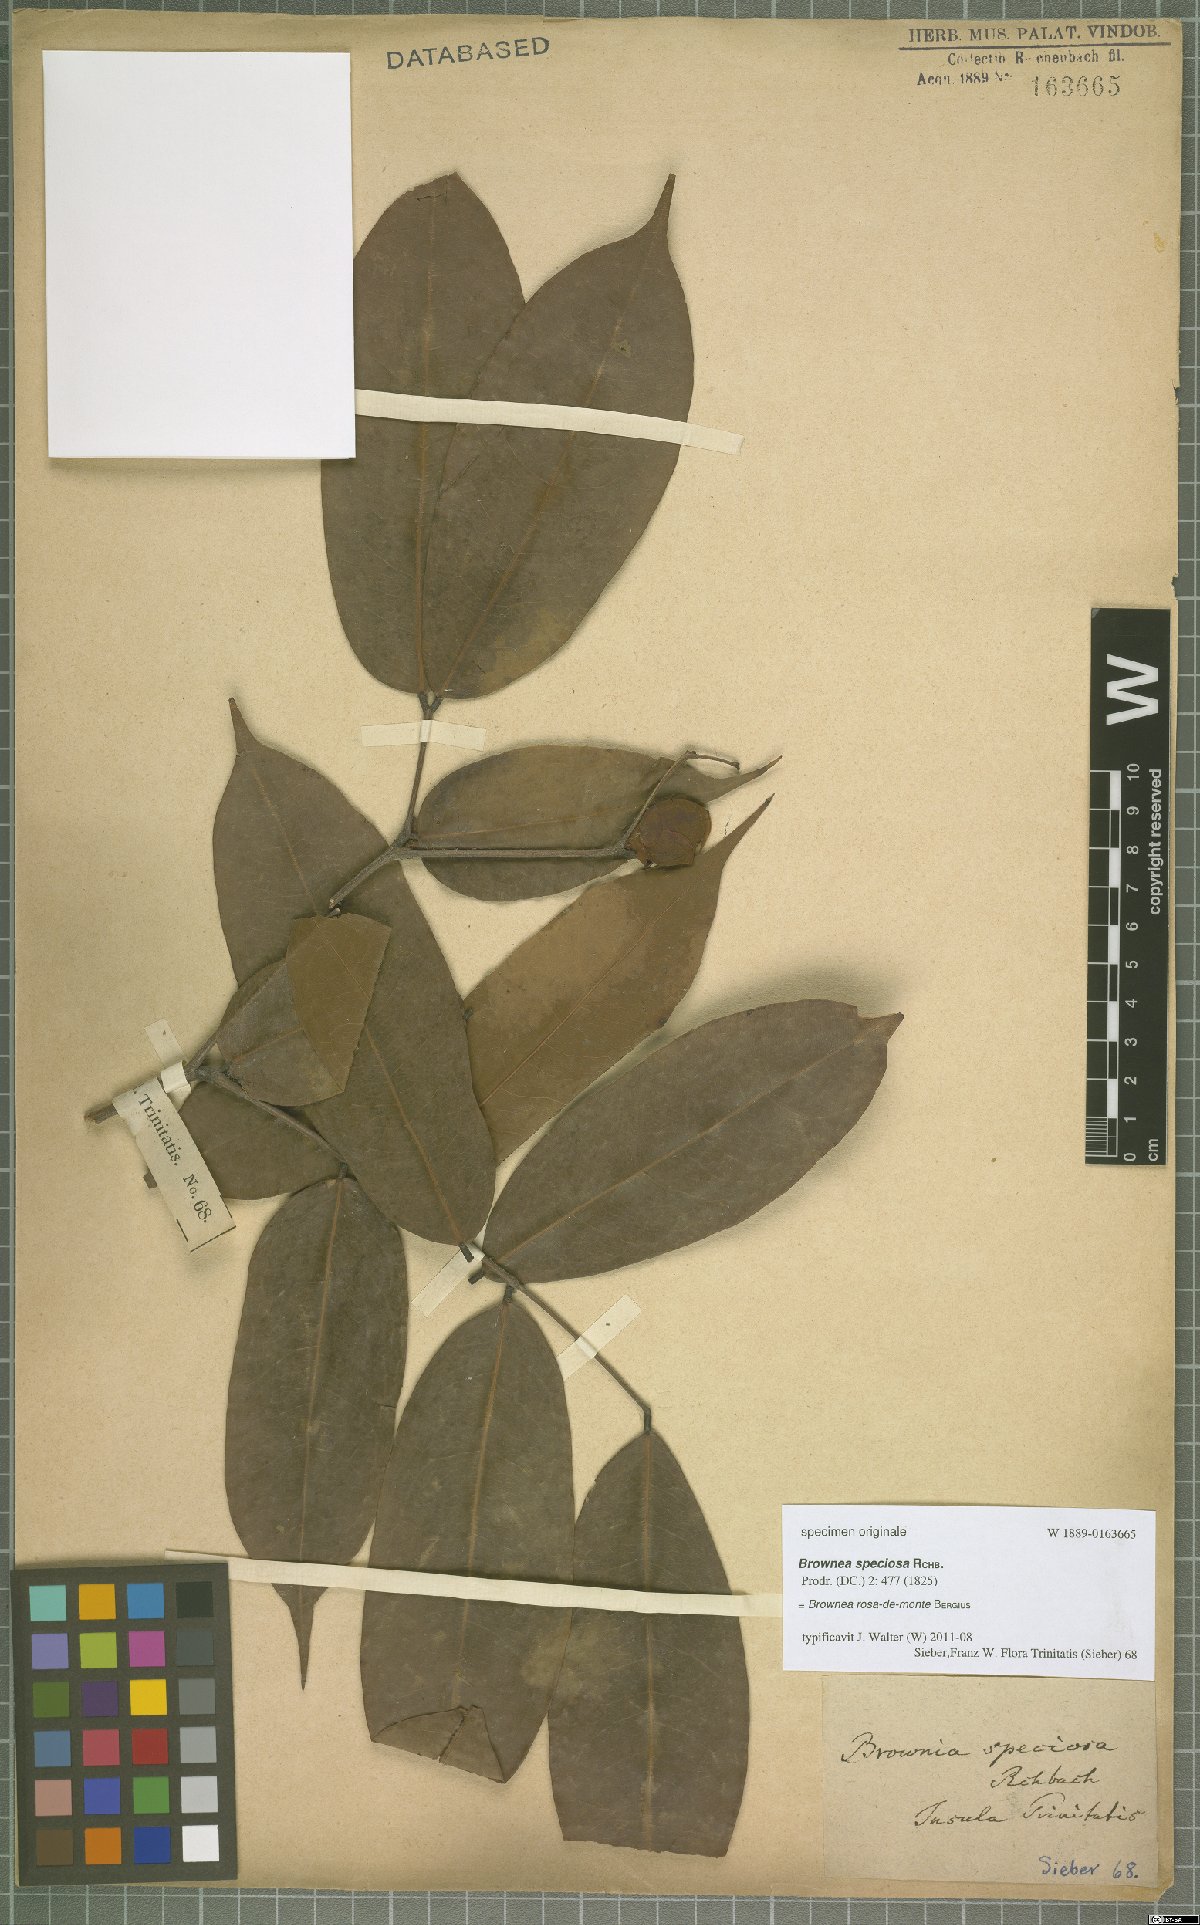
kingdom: Plantae
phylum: Tracheophyta
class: Magnoliopsida
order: Fabales
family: Fabaceae
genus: Brownea
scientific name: Brownea rosa-de-monte
